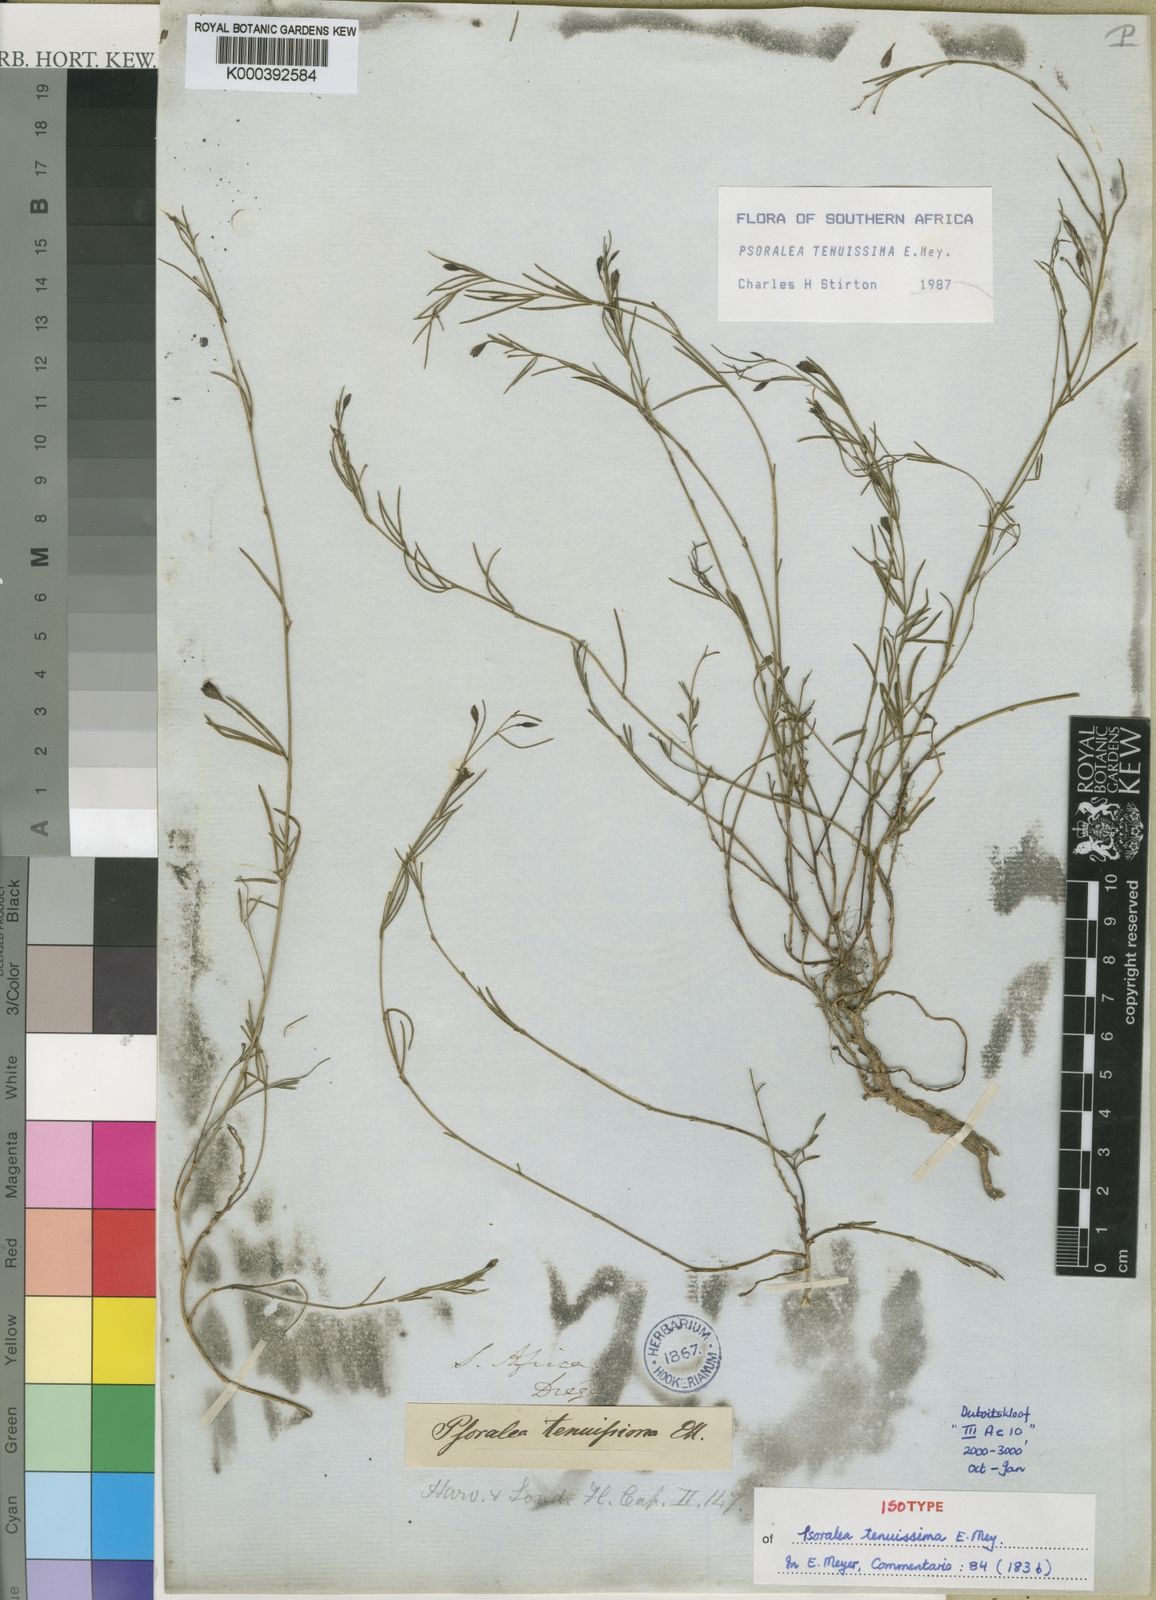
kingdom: Plantae
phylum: Tracheophyta
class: Magnoliopsida
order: Fabales
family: Fabaceae
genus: Psoralea
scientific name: Psoralea tenuissima
